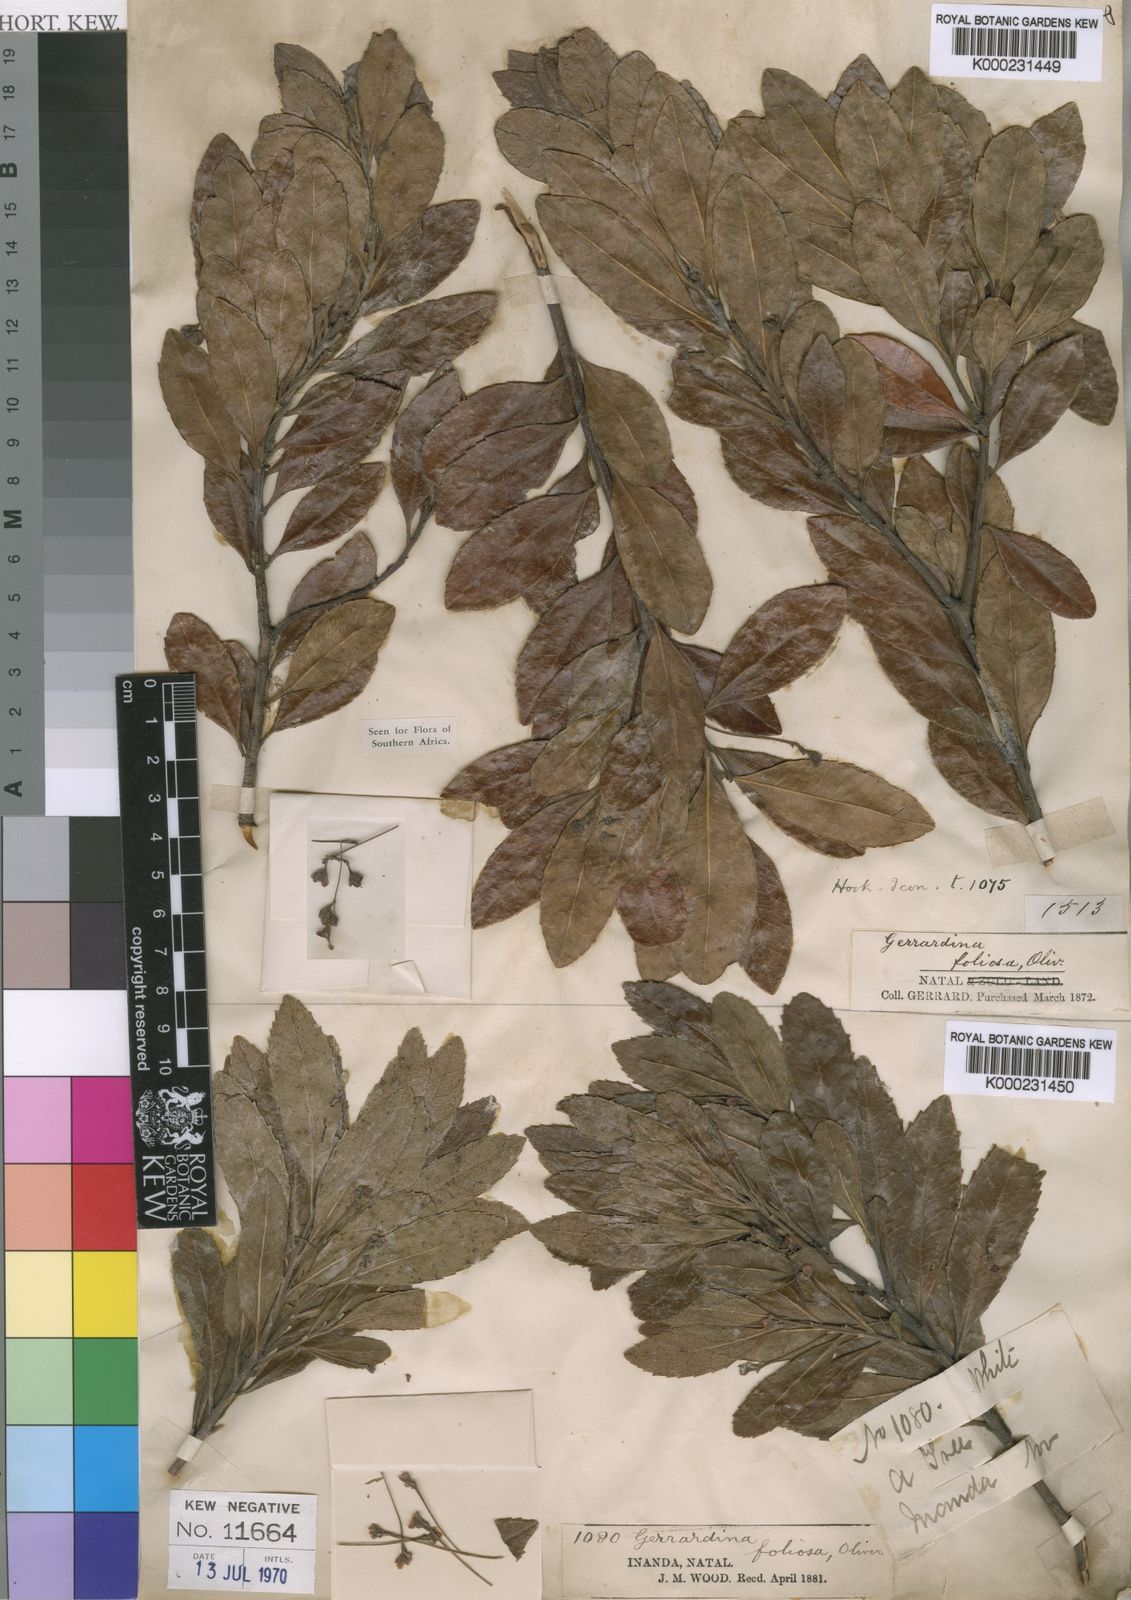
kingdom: Plantae
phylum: Tracheophyta
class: Magnoliopsida
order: Huerteales
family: Gerrardinaceae
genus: Gerrardina
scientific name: Gerrardina foliosa
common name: Krantz-berry
